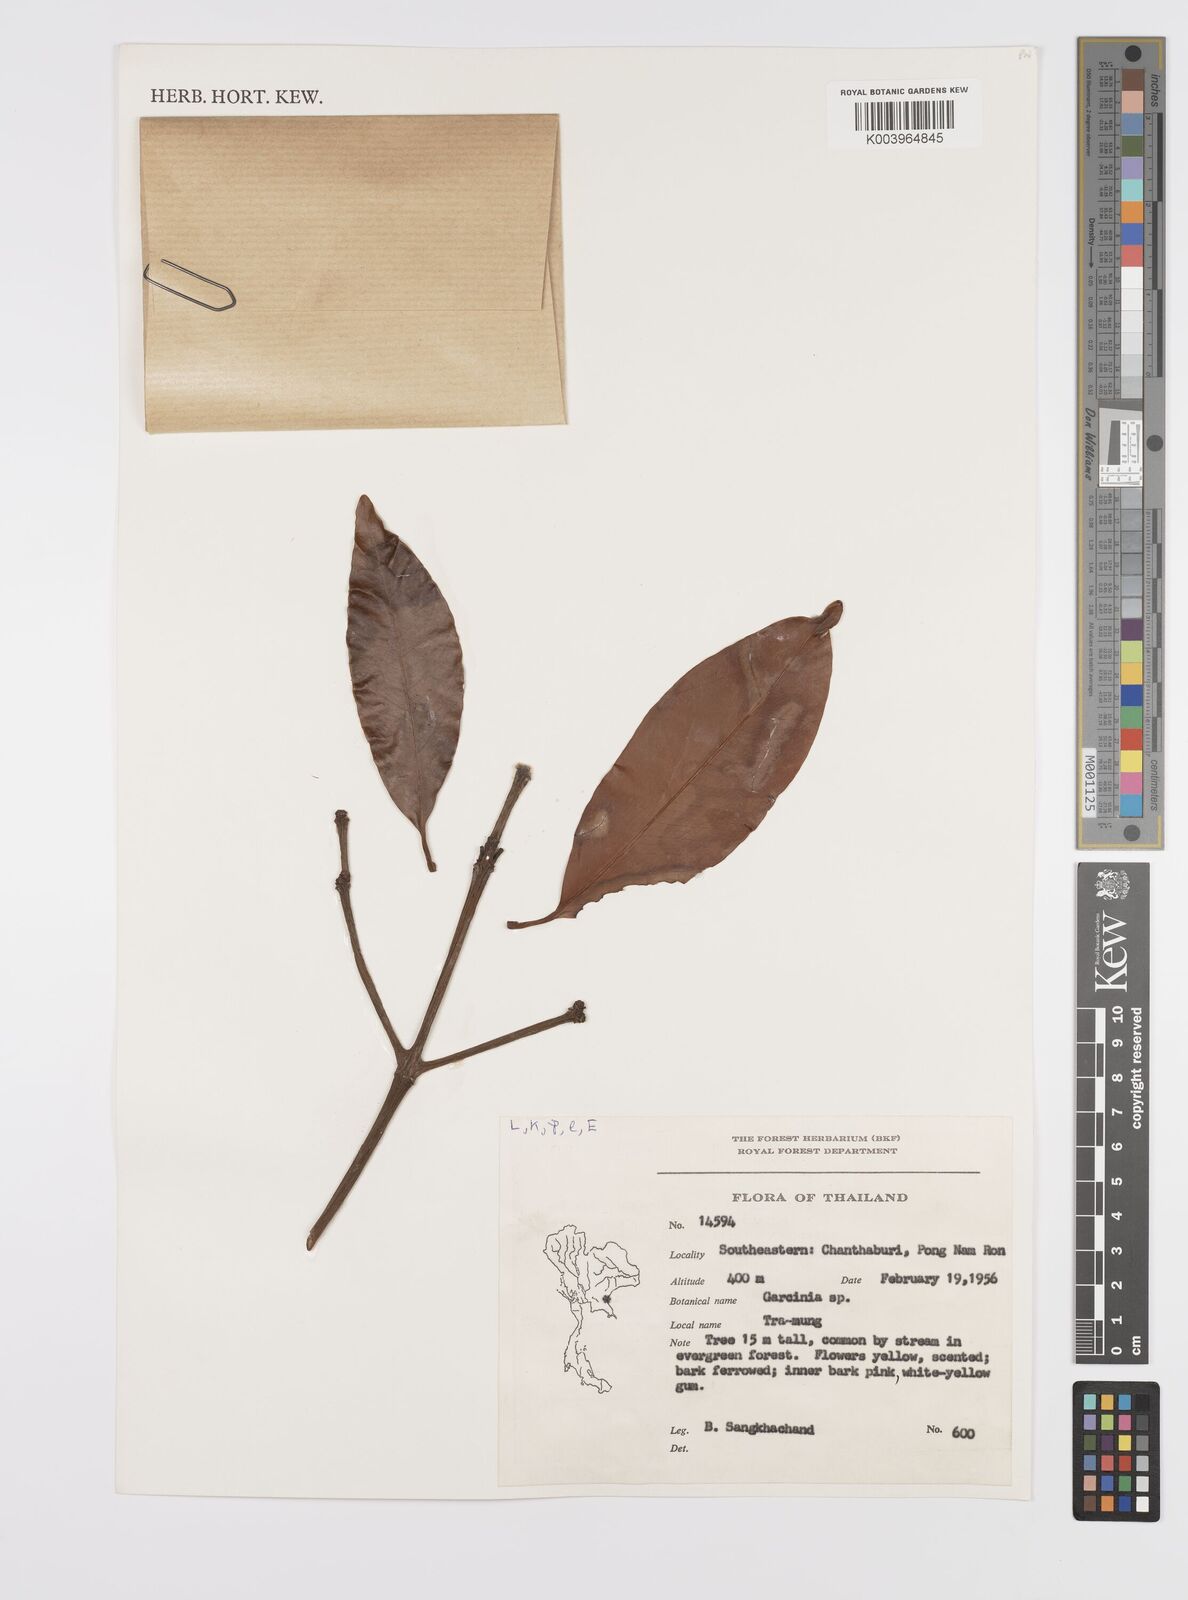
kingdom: Plantae
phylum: Tracheophyta
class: Magnoliopsida
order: Malpighiales
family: Clusiaceae
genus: Garcinia
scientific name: Garcinia
